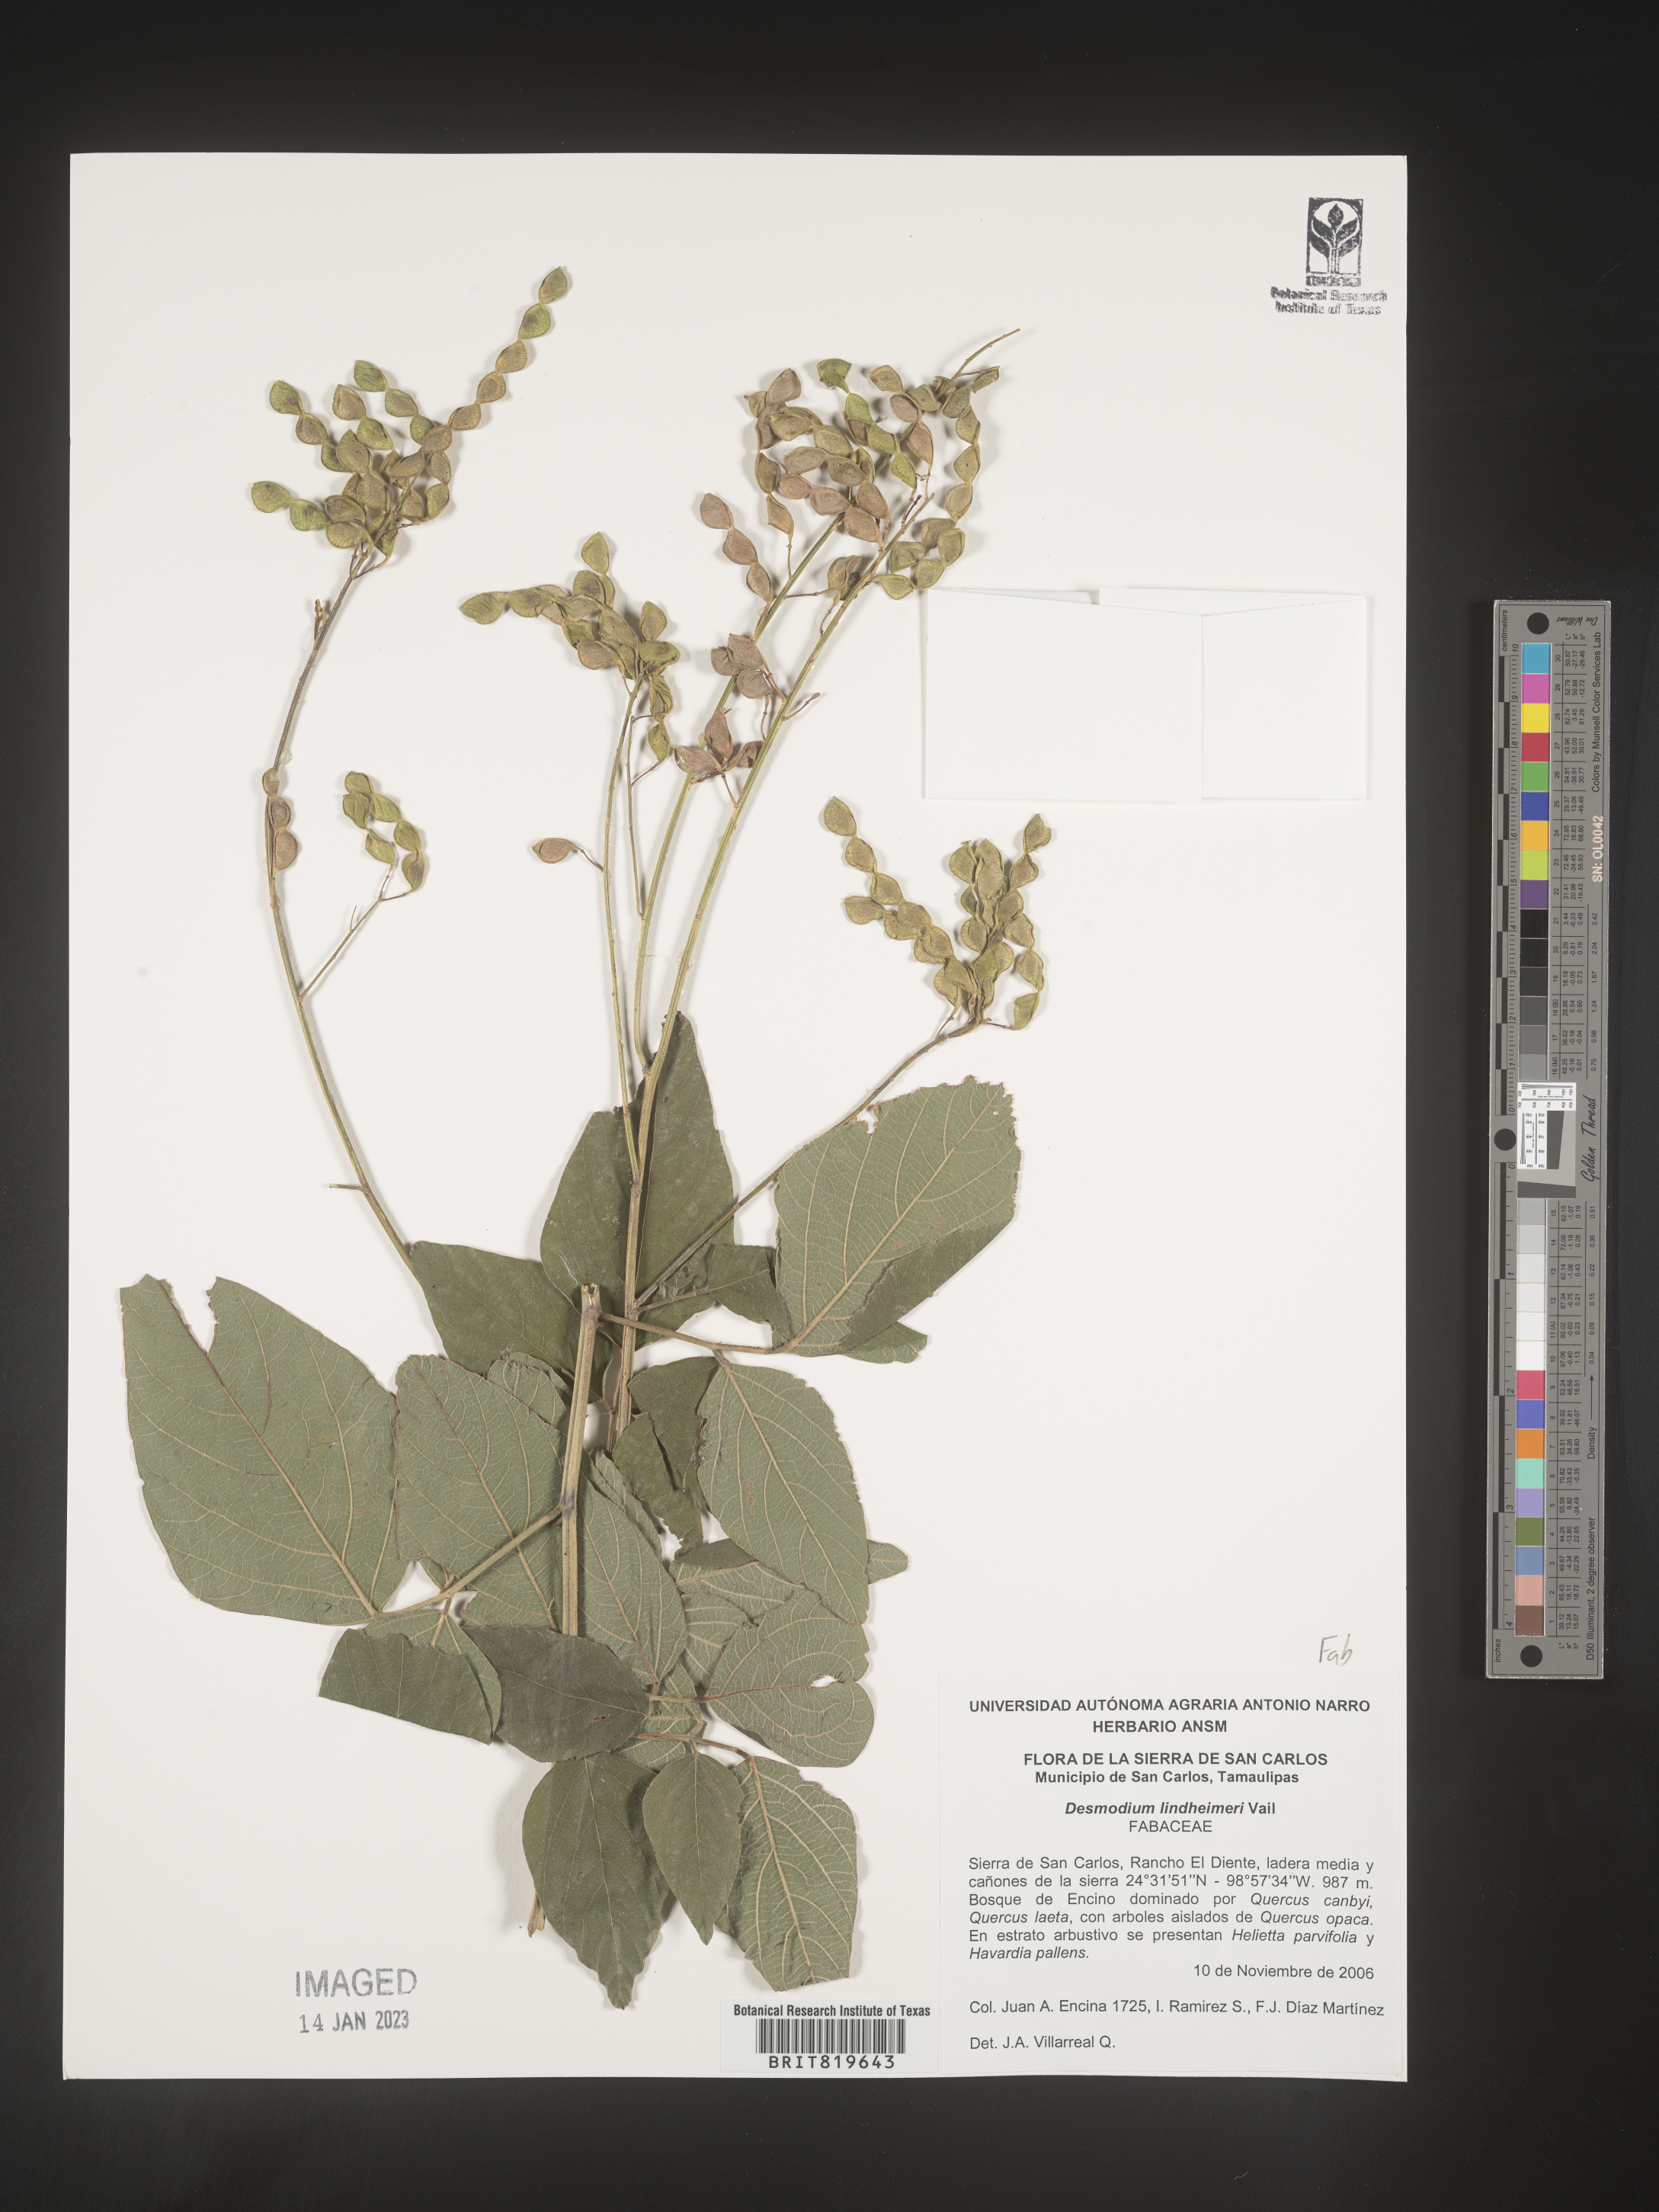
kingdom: Plantae
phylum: Tracheophyta
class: Magnoliopsida
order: Fabales
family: Fabaceae
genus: Desmodium
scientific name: Desmodium
